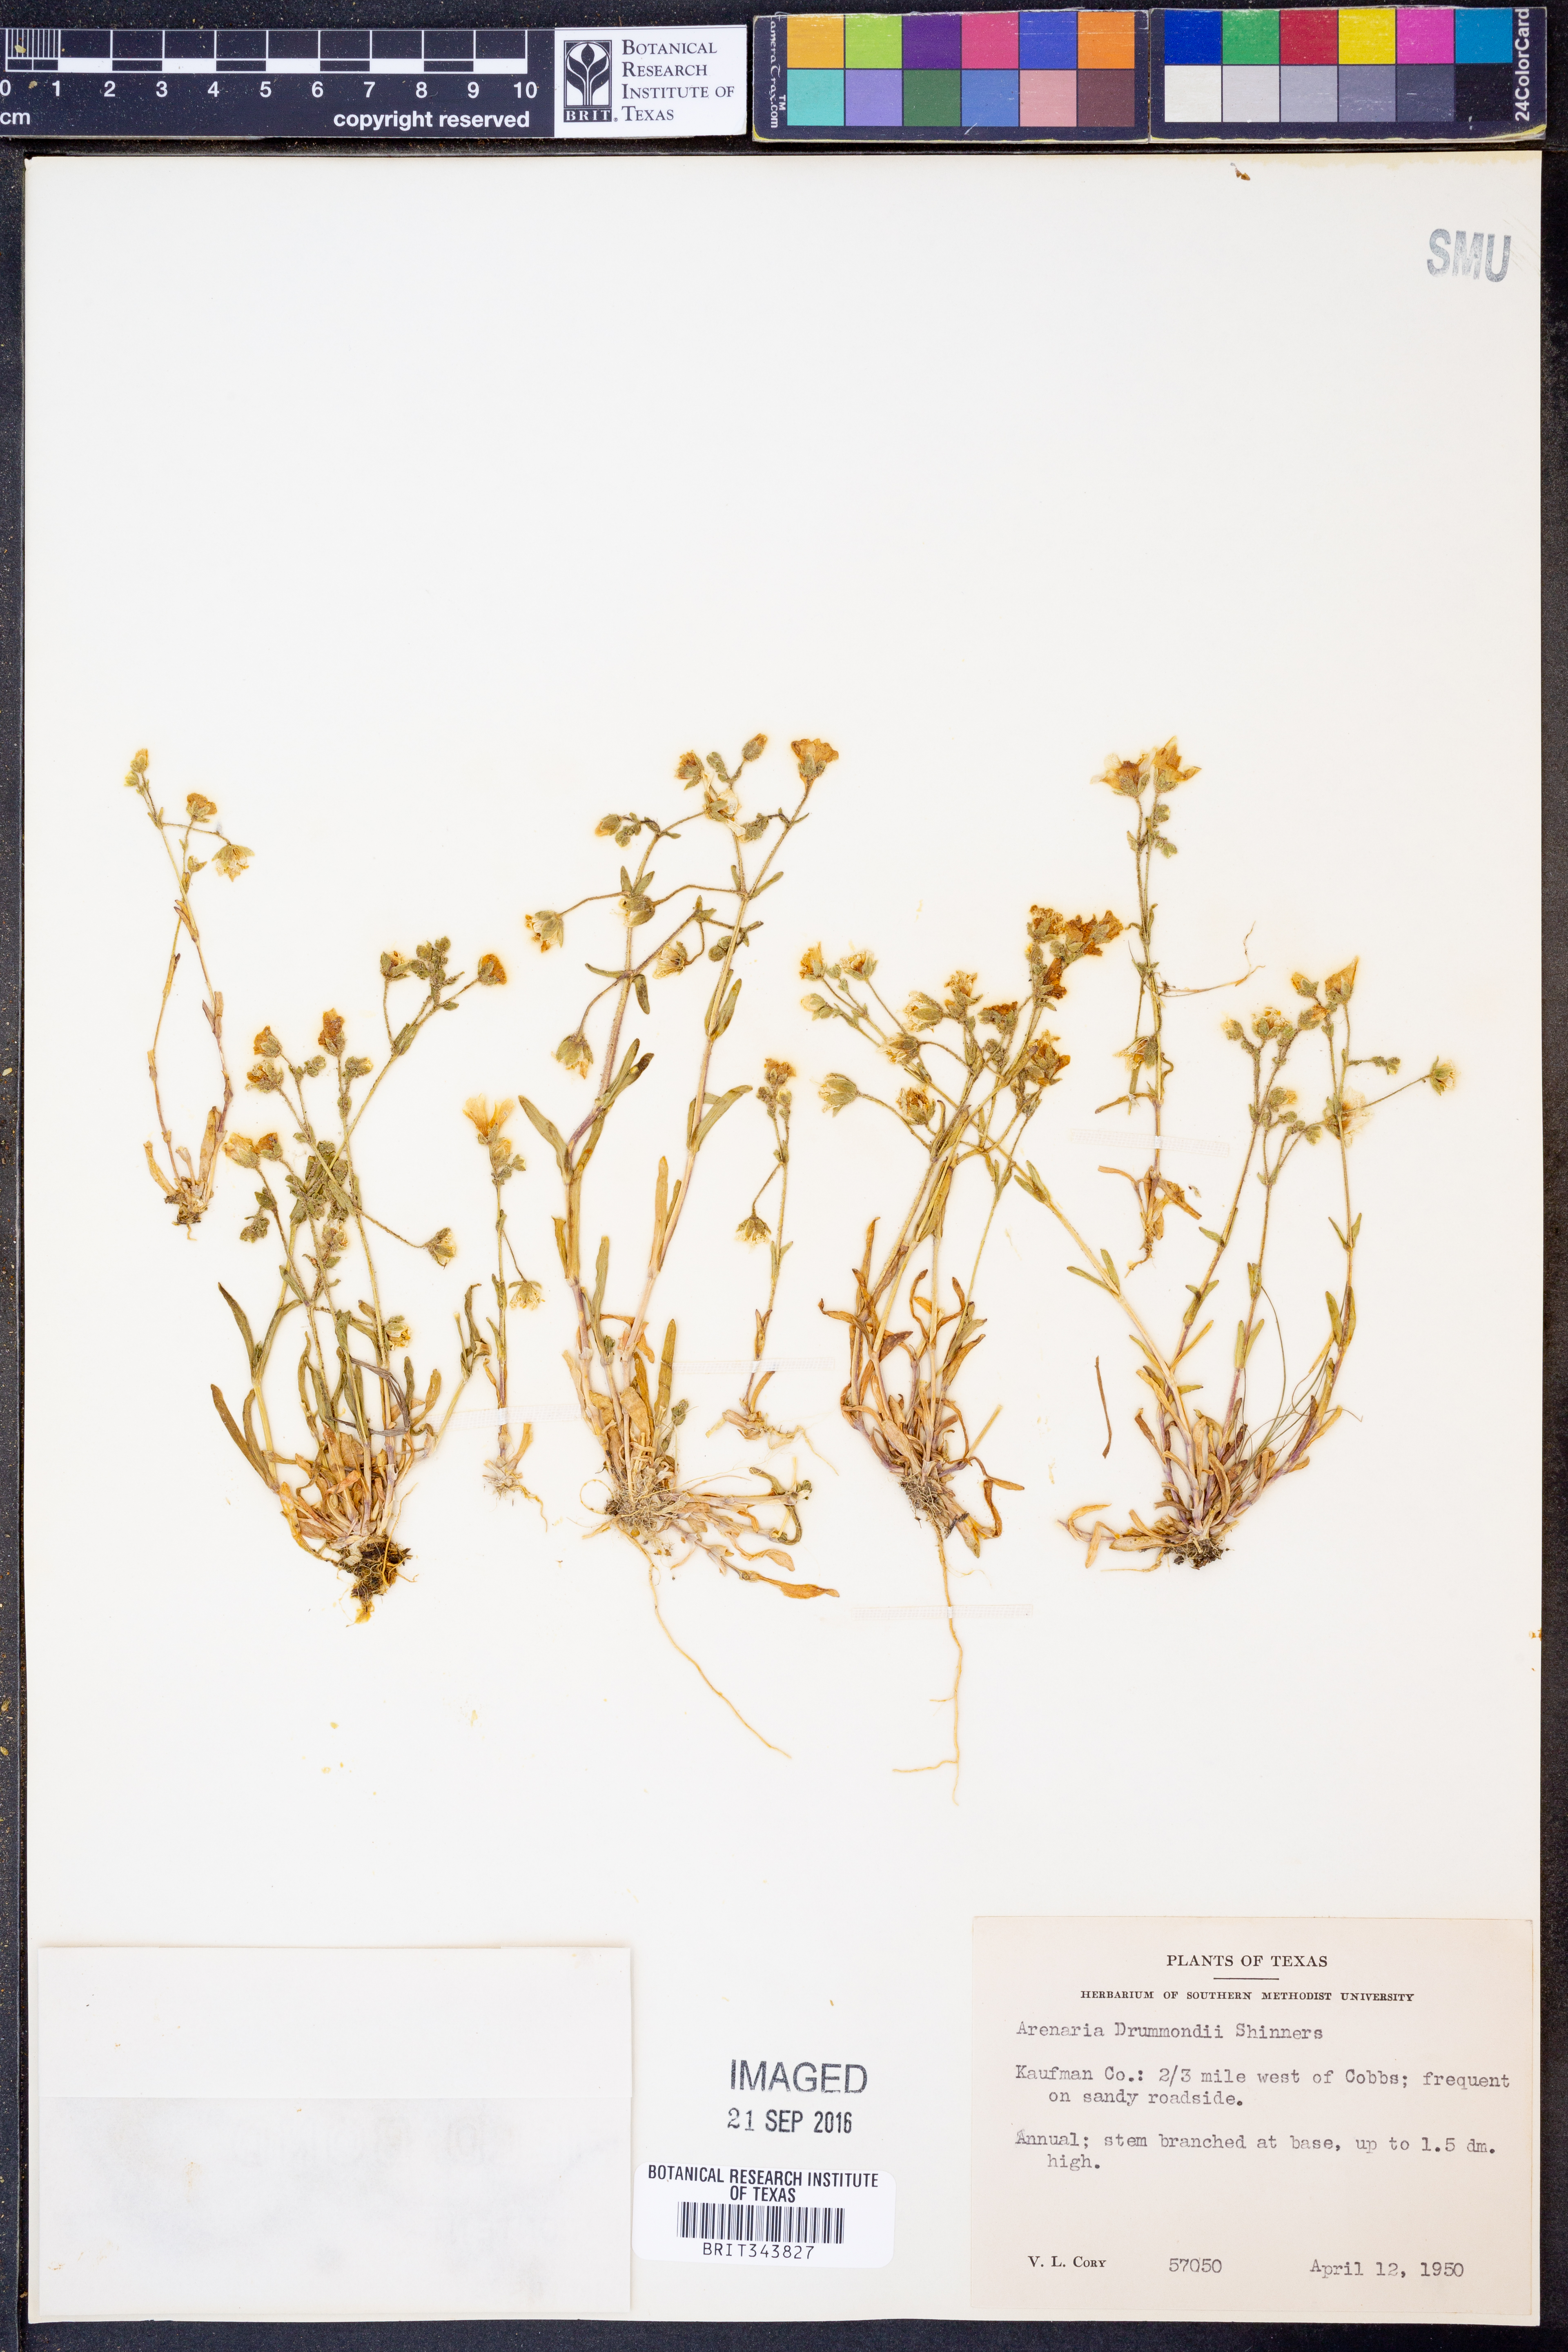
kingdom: Plantae
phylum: Tracheophyta
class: Magnoliopsida
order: Caryophyllales
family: Caryophyllaceae
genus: Geocarpon
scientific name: Geocarpon nuttallii
